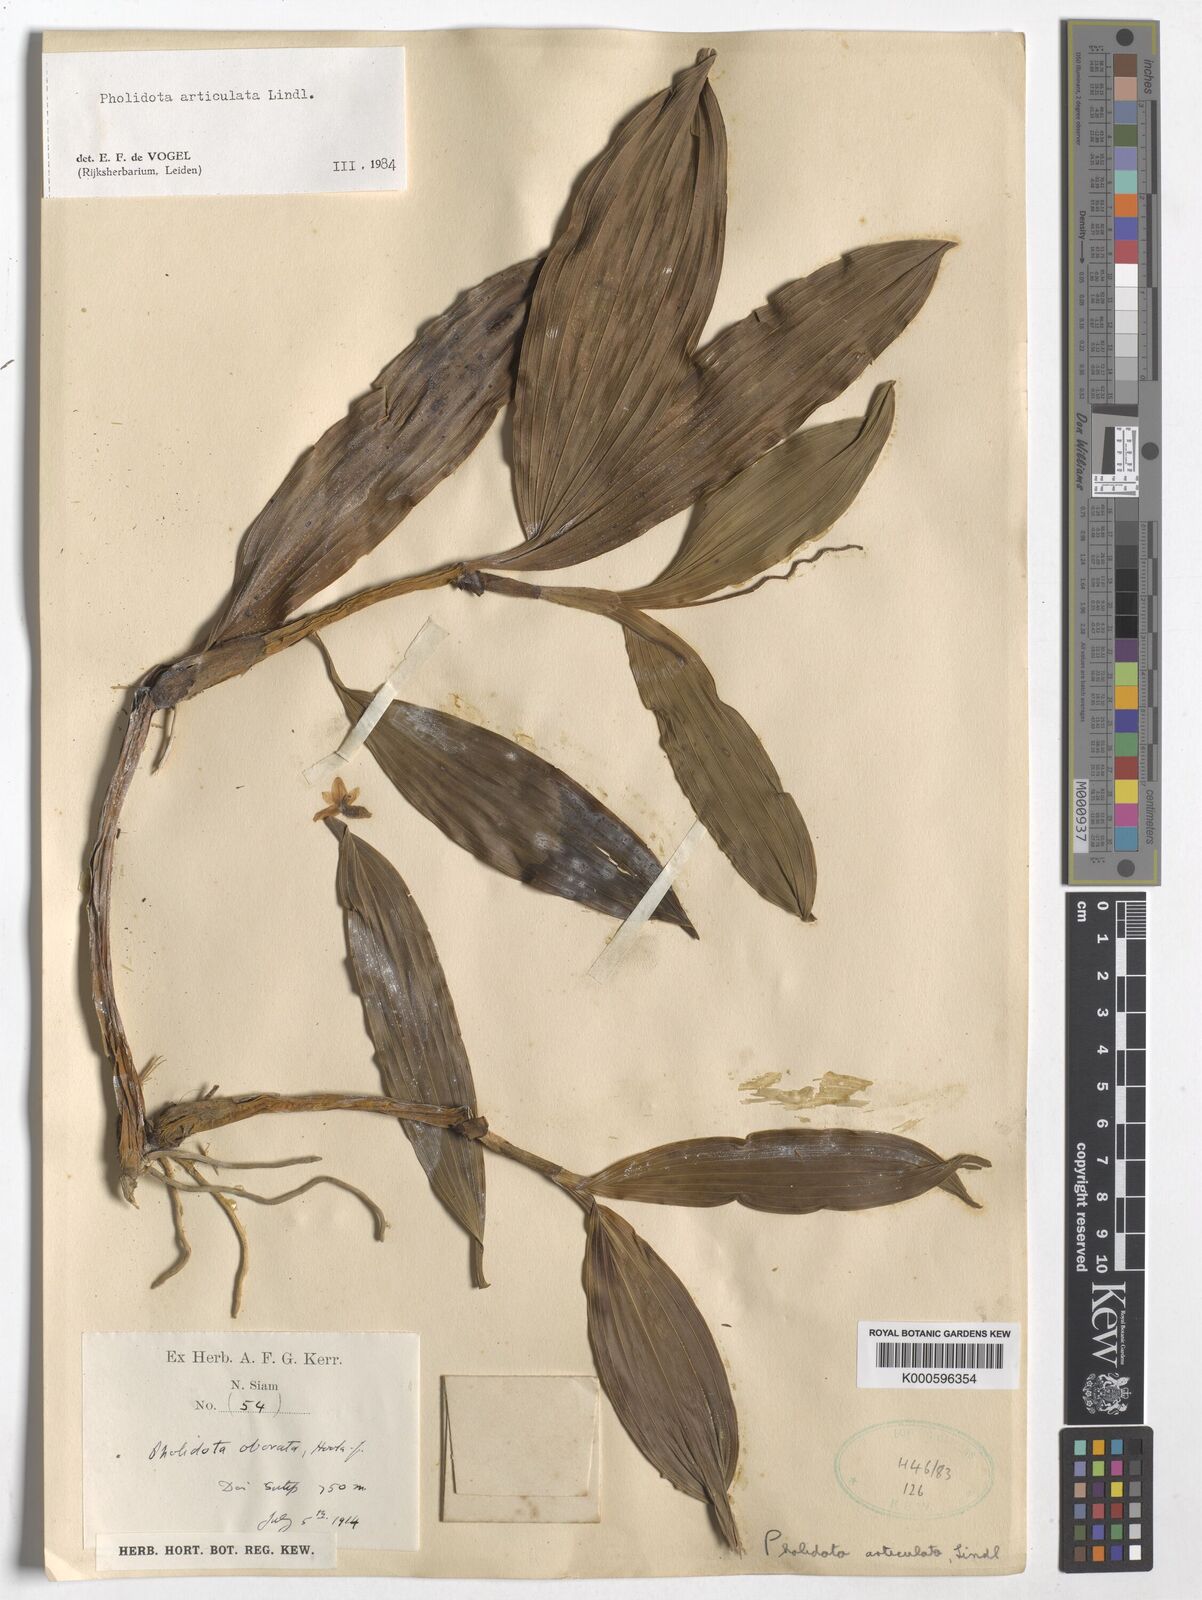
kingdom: Plantae
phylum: Tracheophyta
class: Liliopsida
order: Asparagales
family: Orchidaceae
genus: Coelogyne
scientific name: Coelogyne articulata
